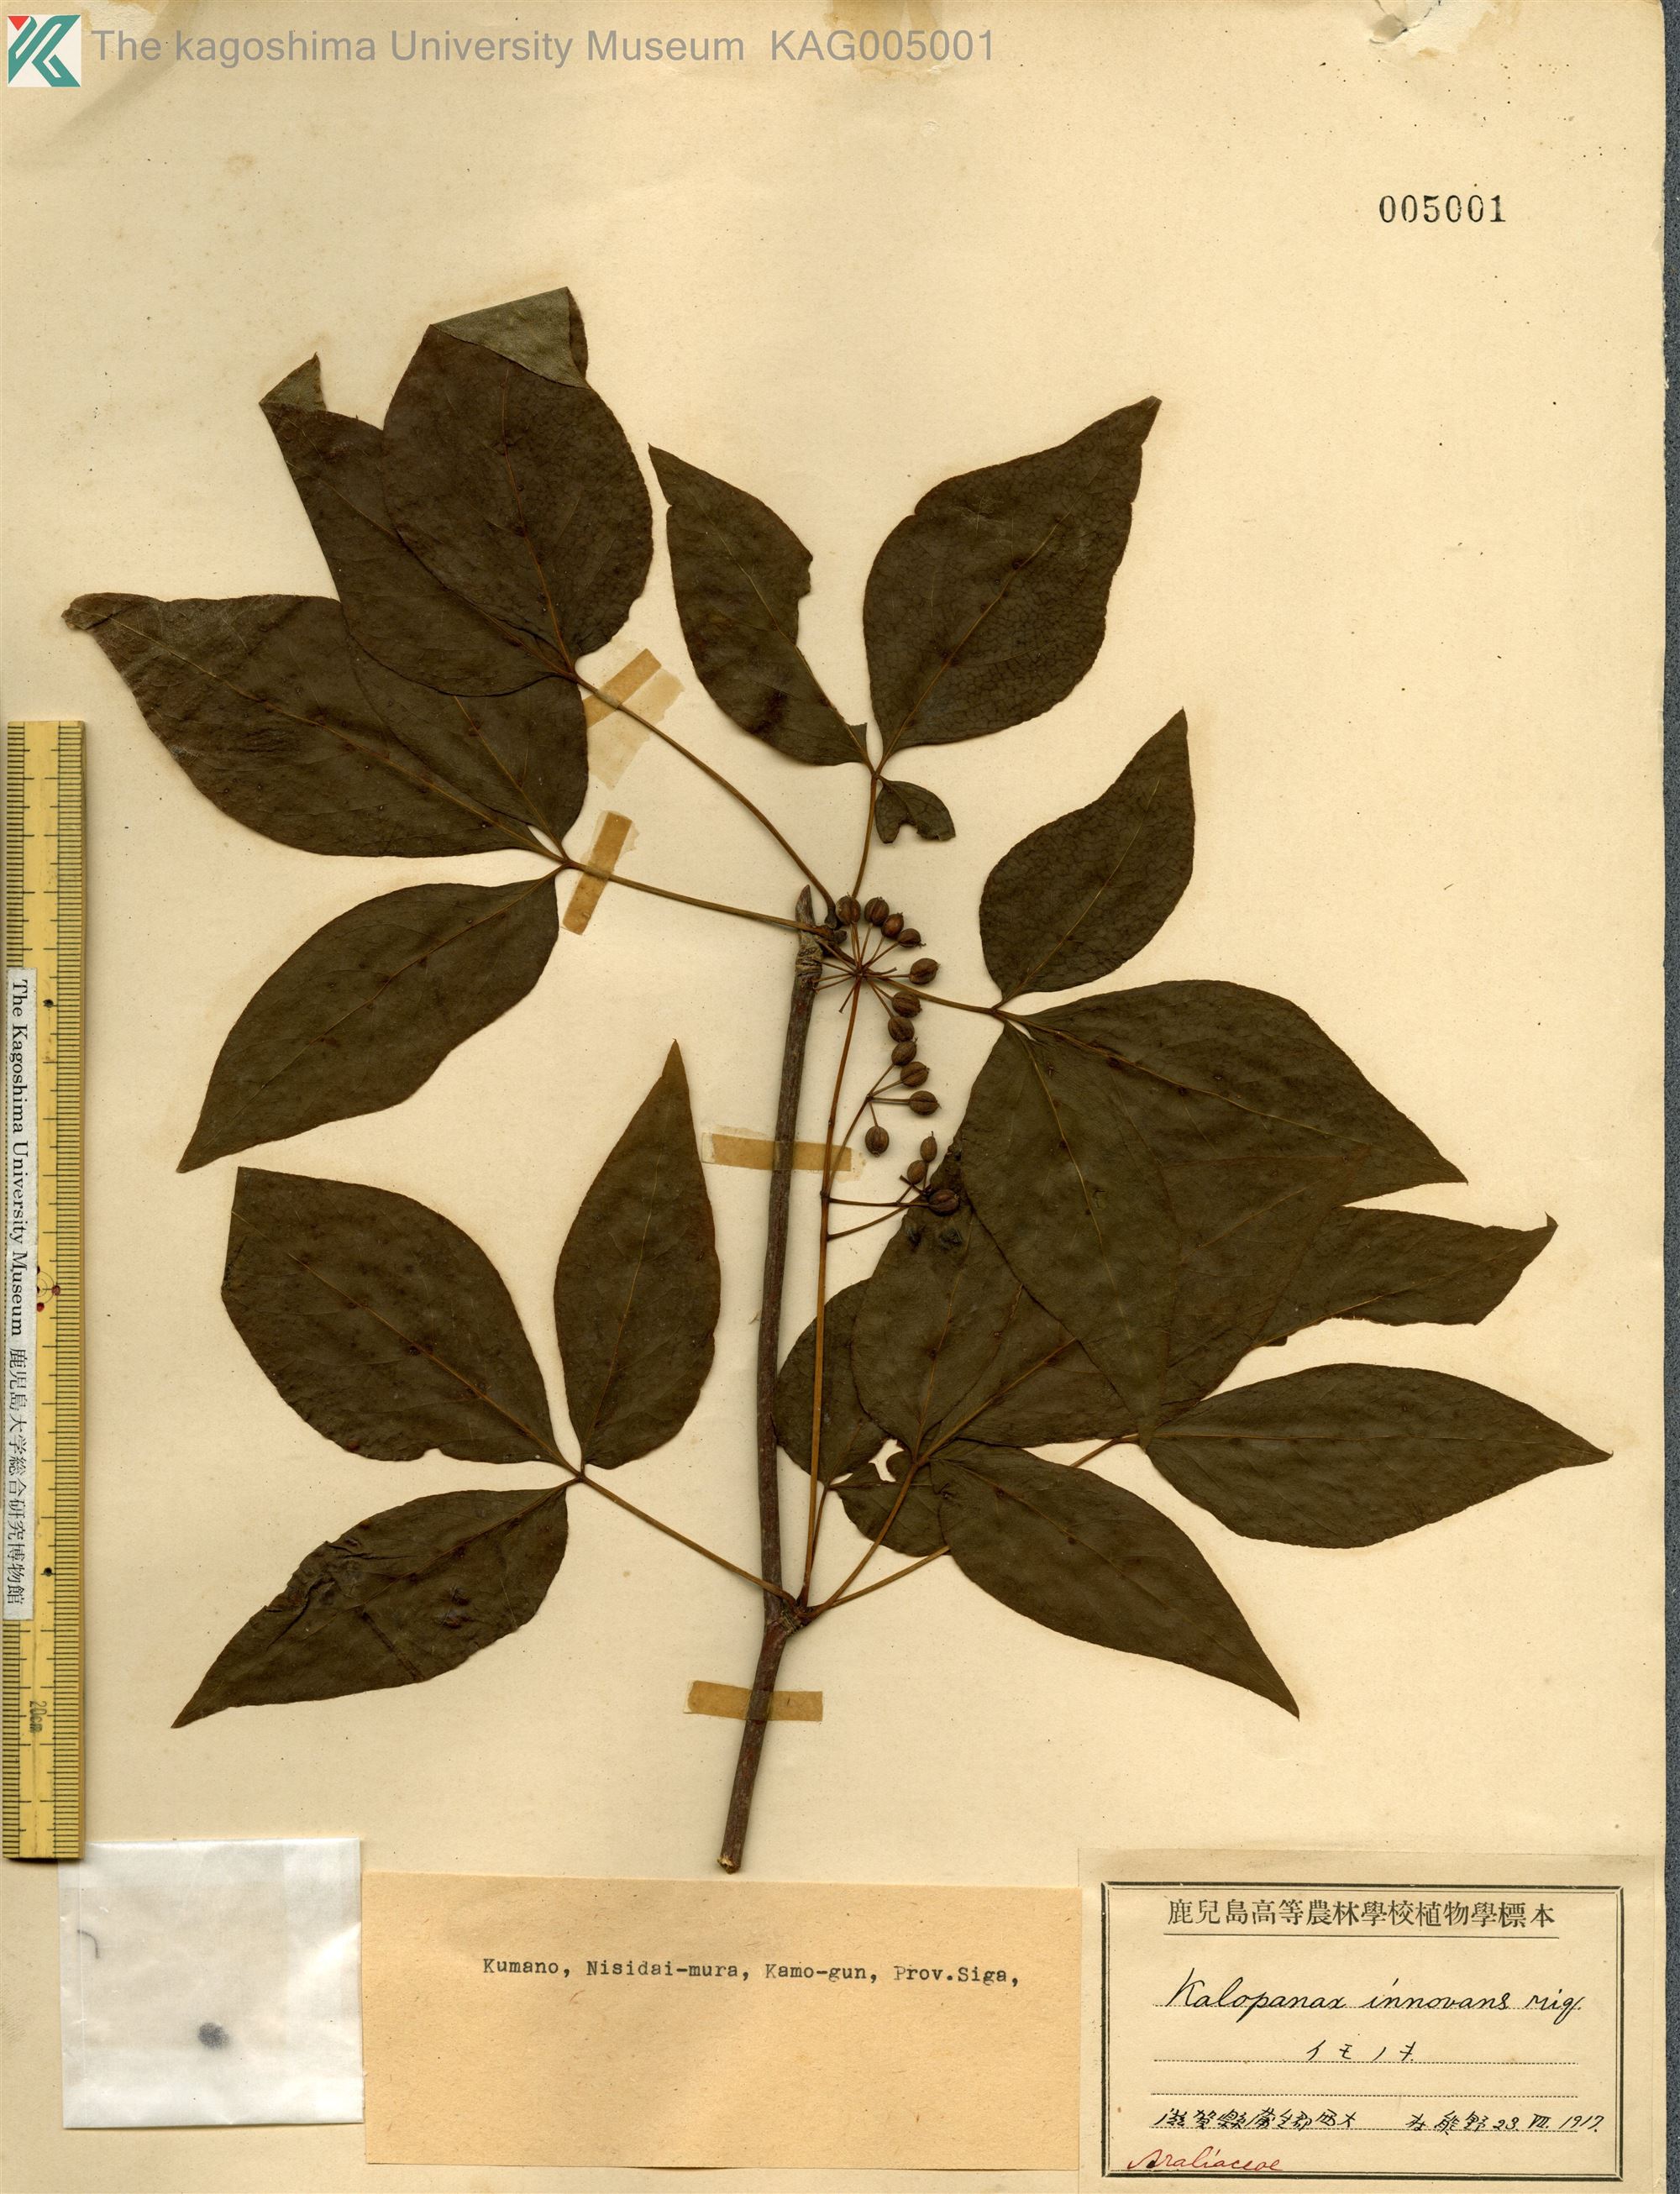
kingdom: Plantae
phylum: Tracheophyta
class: Magnoliopsida
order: Apiales
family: Araliaceae
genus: Gamblea
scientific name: Gamblea innovans
